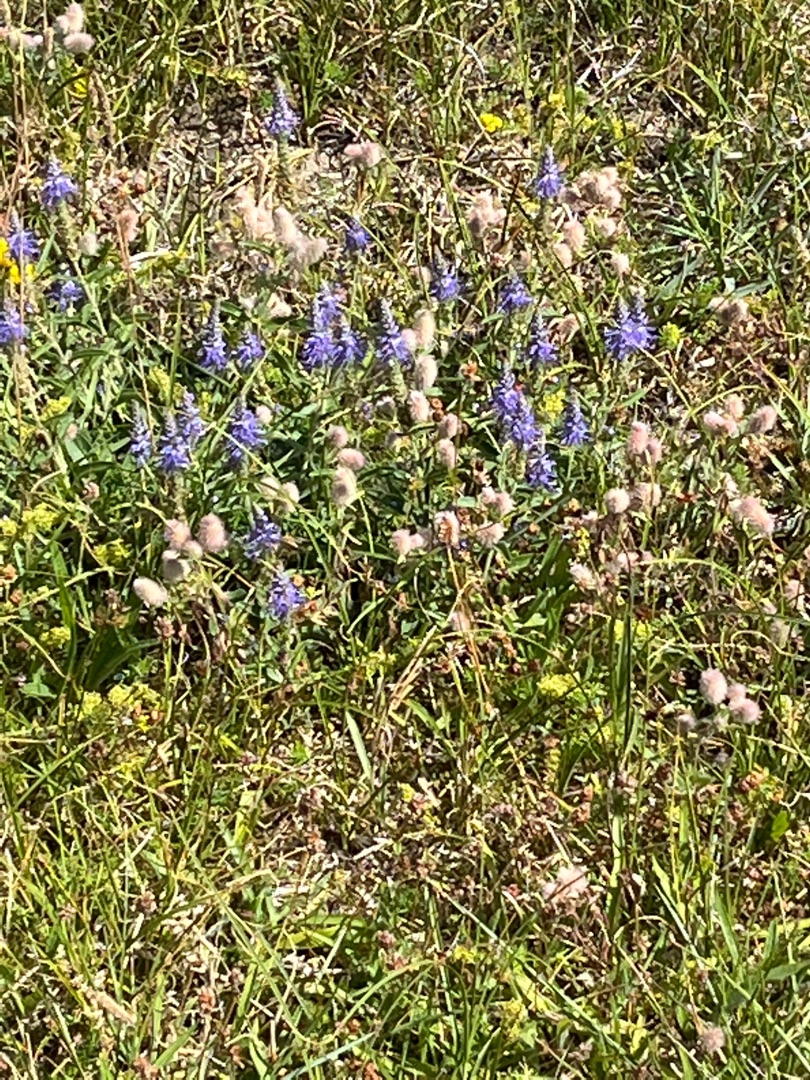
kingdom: Plantae
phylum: Tracheophyta
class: Magnoliopsida
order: Lamiales
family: Plantaginaceae
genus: Veronica
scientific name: Veronica spicata
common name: Aks-ærenpris
